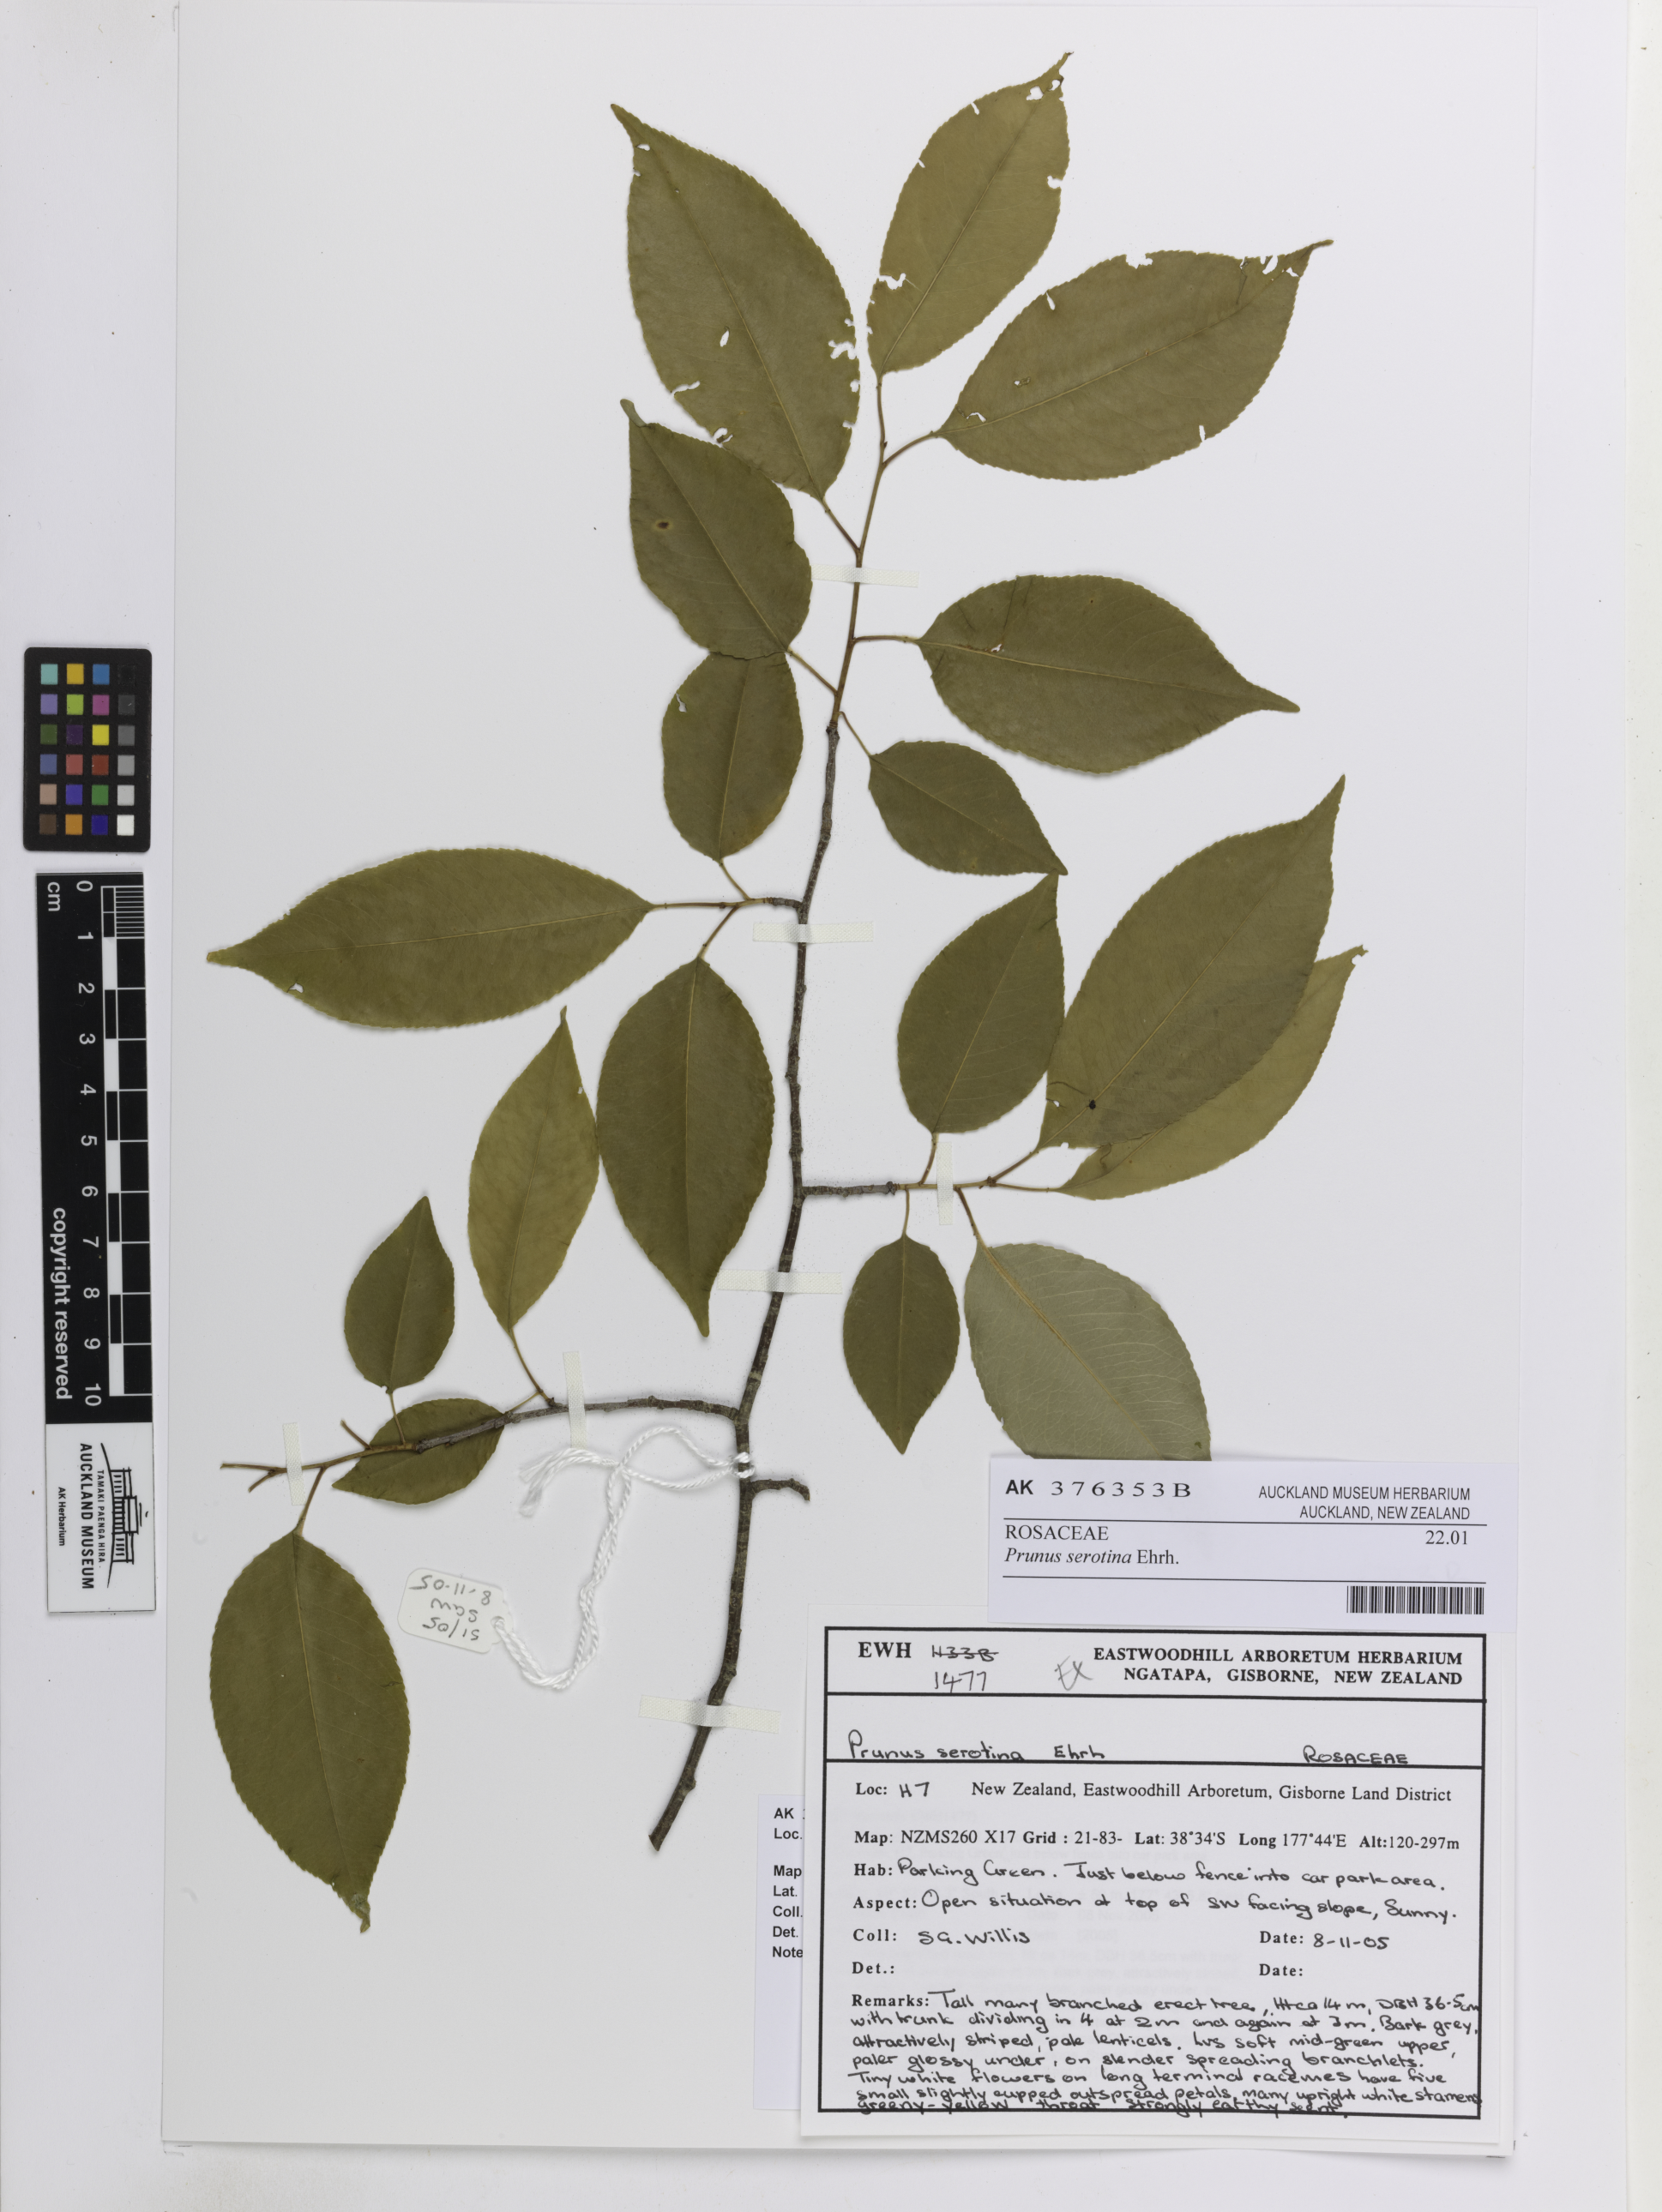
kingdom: Plantae
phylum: Tracheophyta
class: Magnoliopsida
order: Rosales
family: Rosaceae
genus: Prunus
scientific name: Prunus serotina
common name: Black cherry
